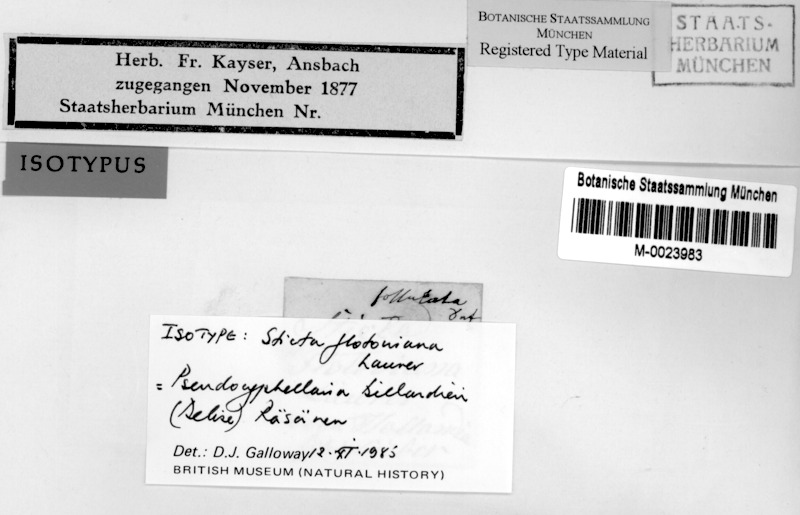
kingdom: Fungi
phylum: Ascomycota
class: Lecanoromycetes
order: Peltigerales
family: Lobariaceae
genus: Pseudocyphellaria
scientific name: Pseudocyphellaria billardierei
